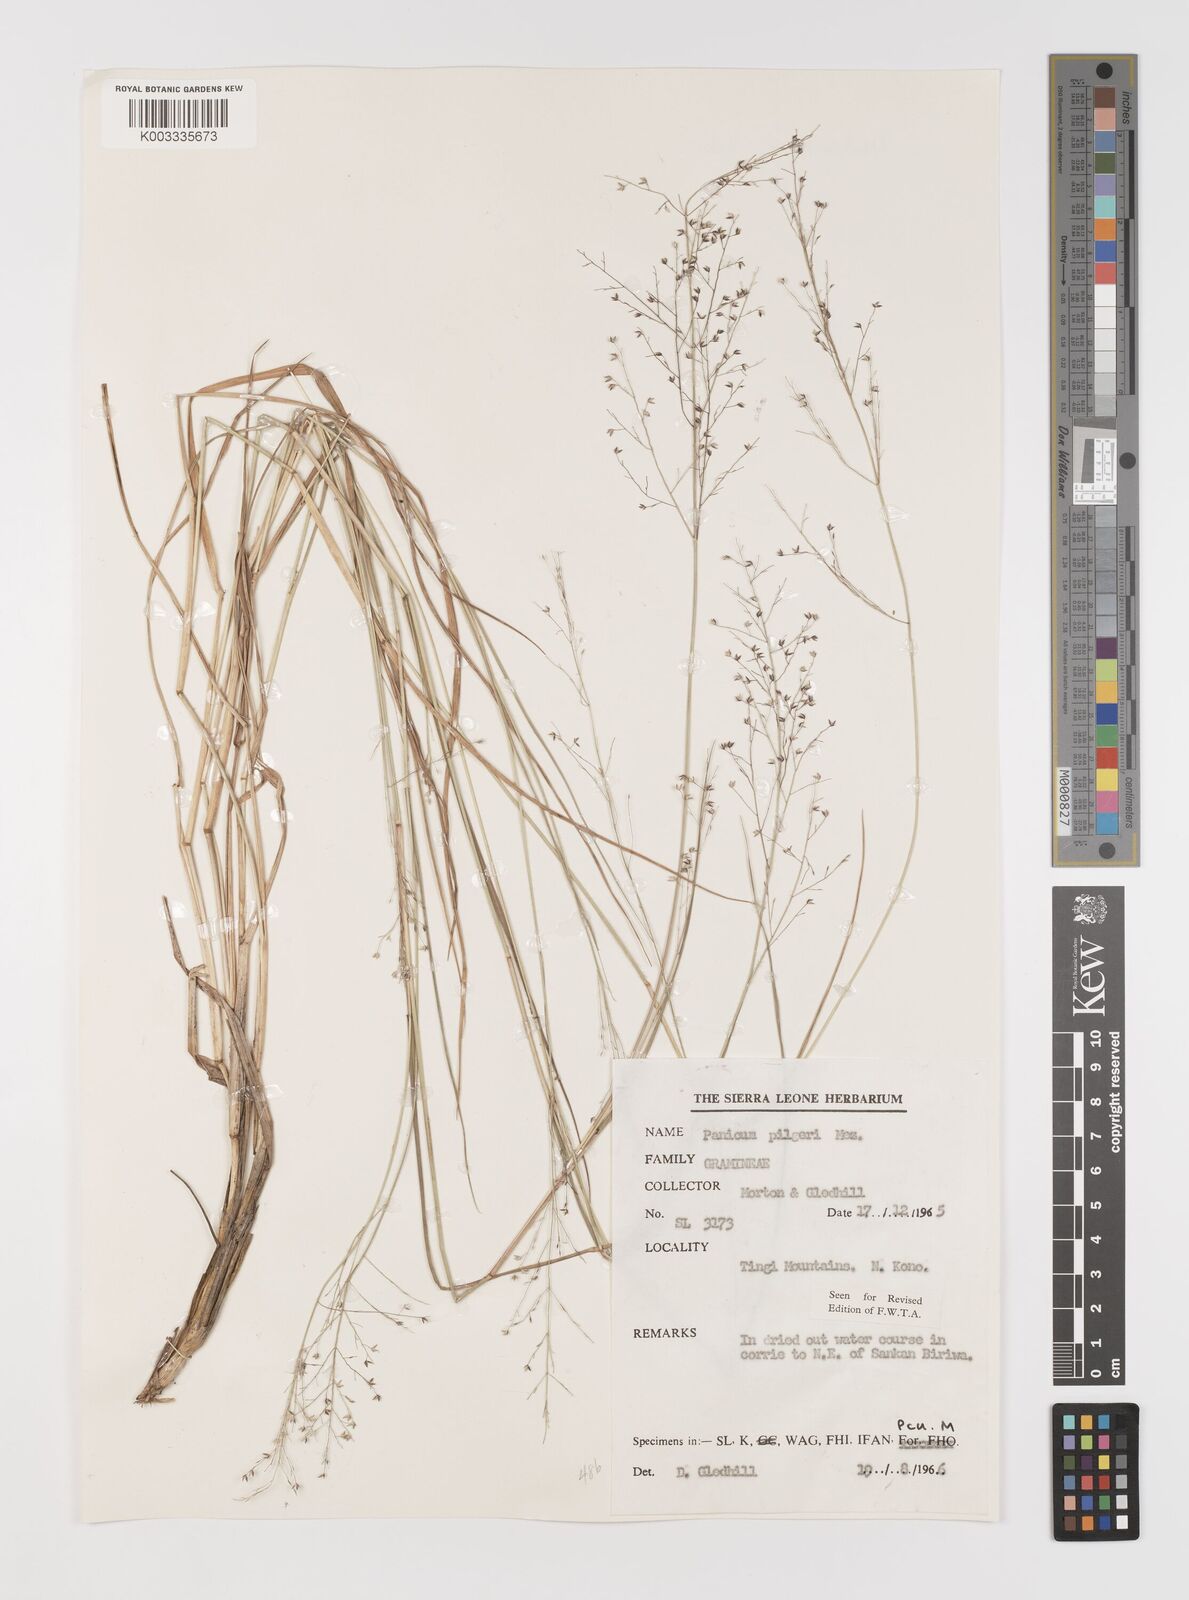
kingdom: Plantae
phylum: Tracheophyta
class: Liliopsida
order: Poales
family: Poaceae
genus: Panicum
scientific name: Panicum
